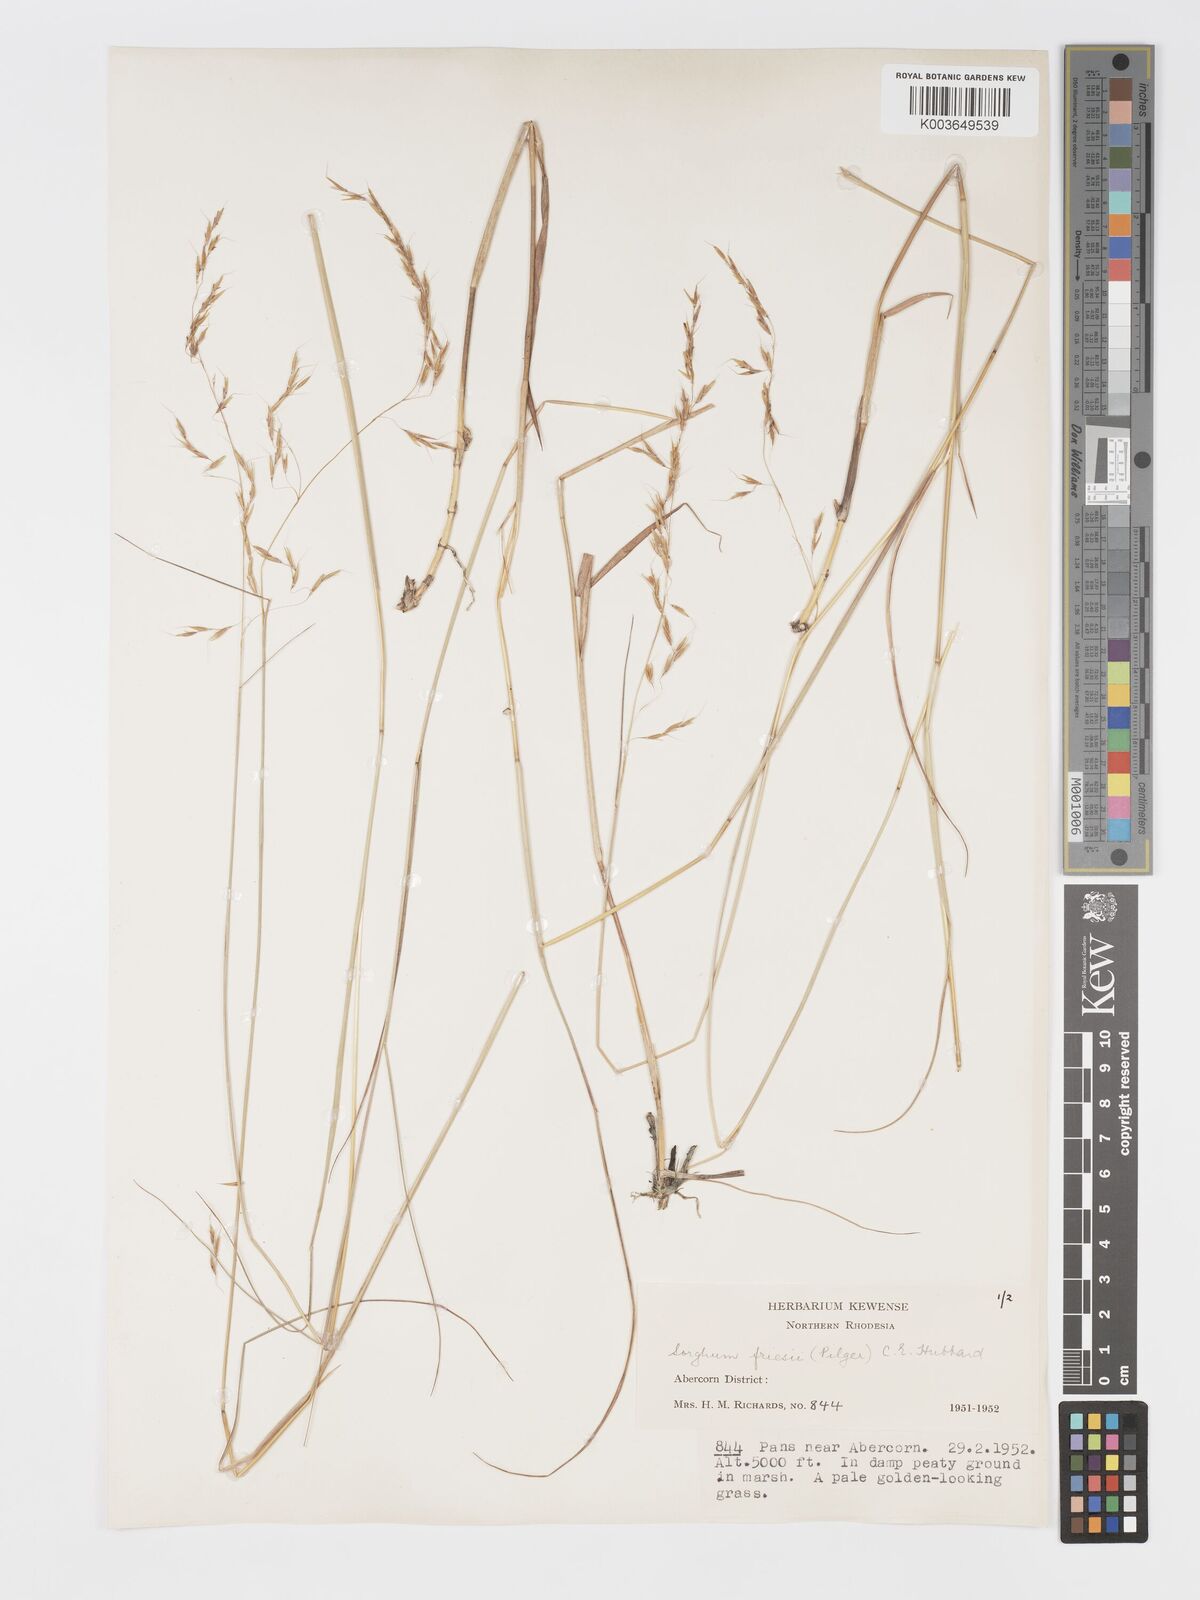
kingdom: Plantae
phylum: Tracheophyta
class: Liliopsida
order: Poales
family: Poaceae
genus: Sorghastrum
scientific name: Sorghastrum nudipes
